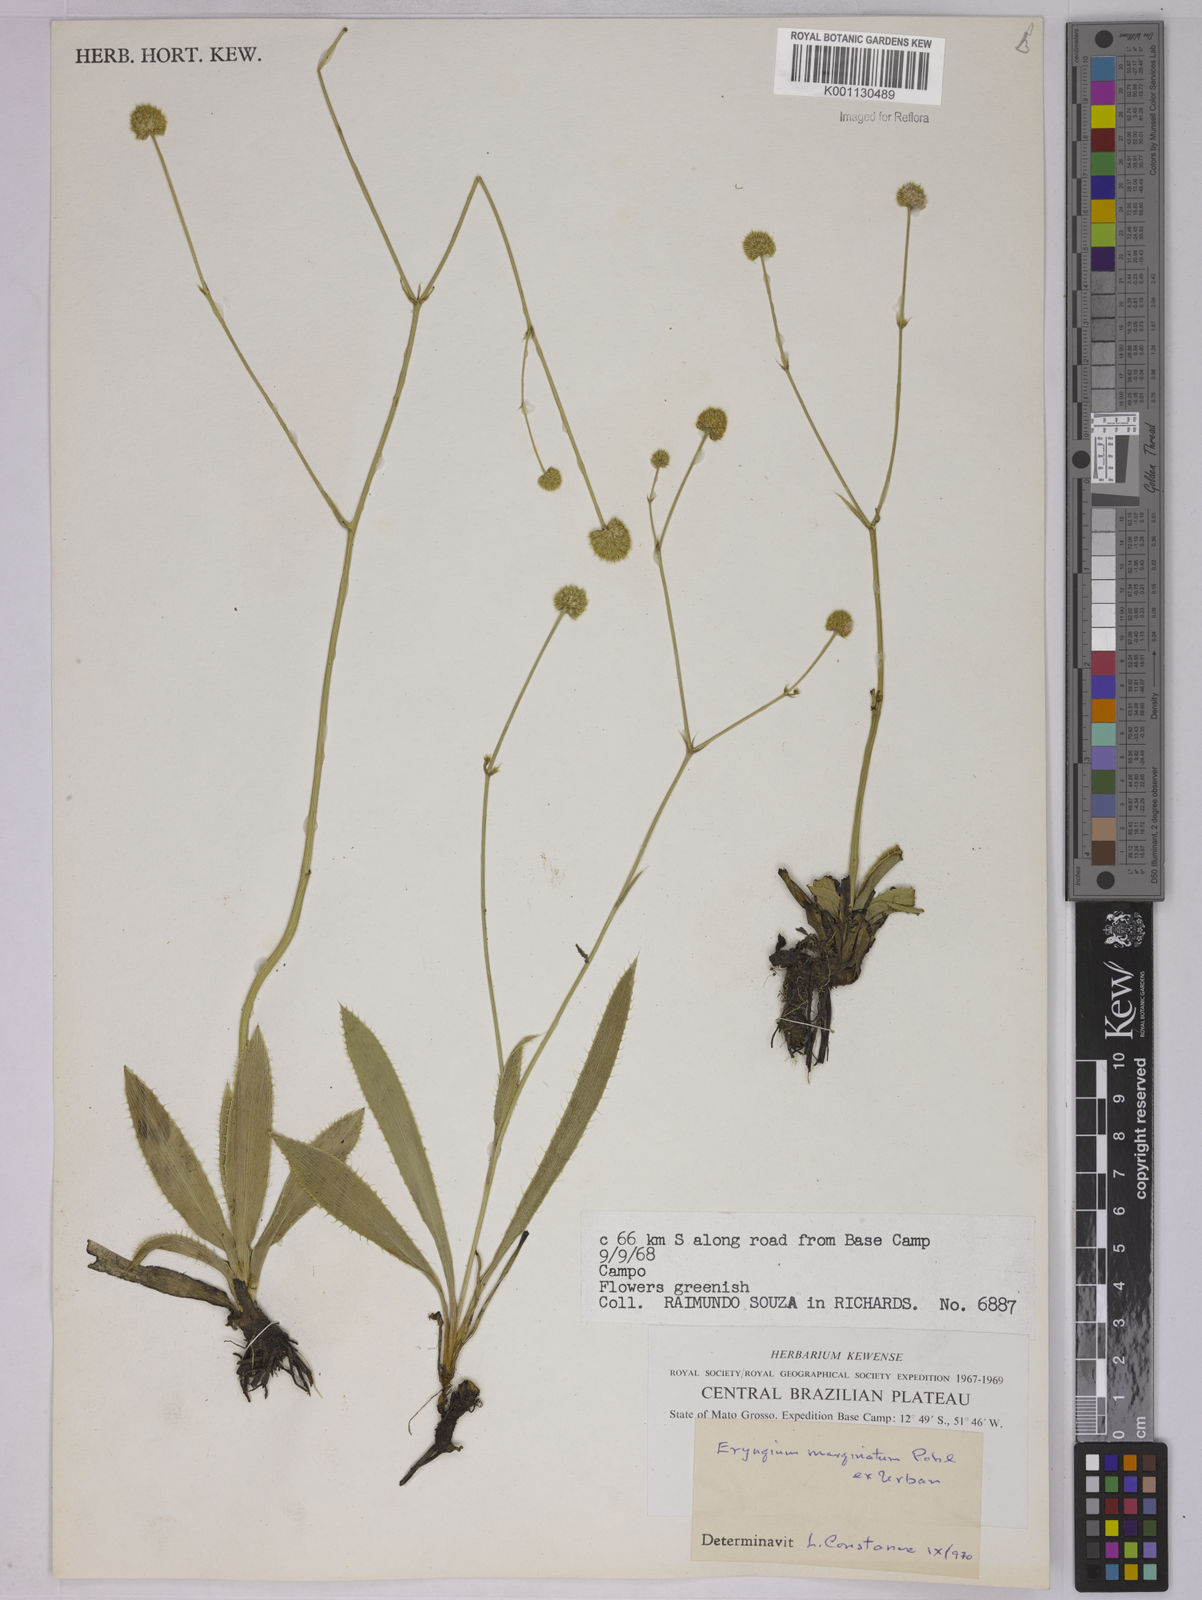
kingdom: Plantae
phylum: Tracheophyta
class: Magnoliopsida
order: Apiales
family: Apiaceae
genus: Eryngium
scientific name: Eryngium marginatum
